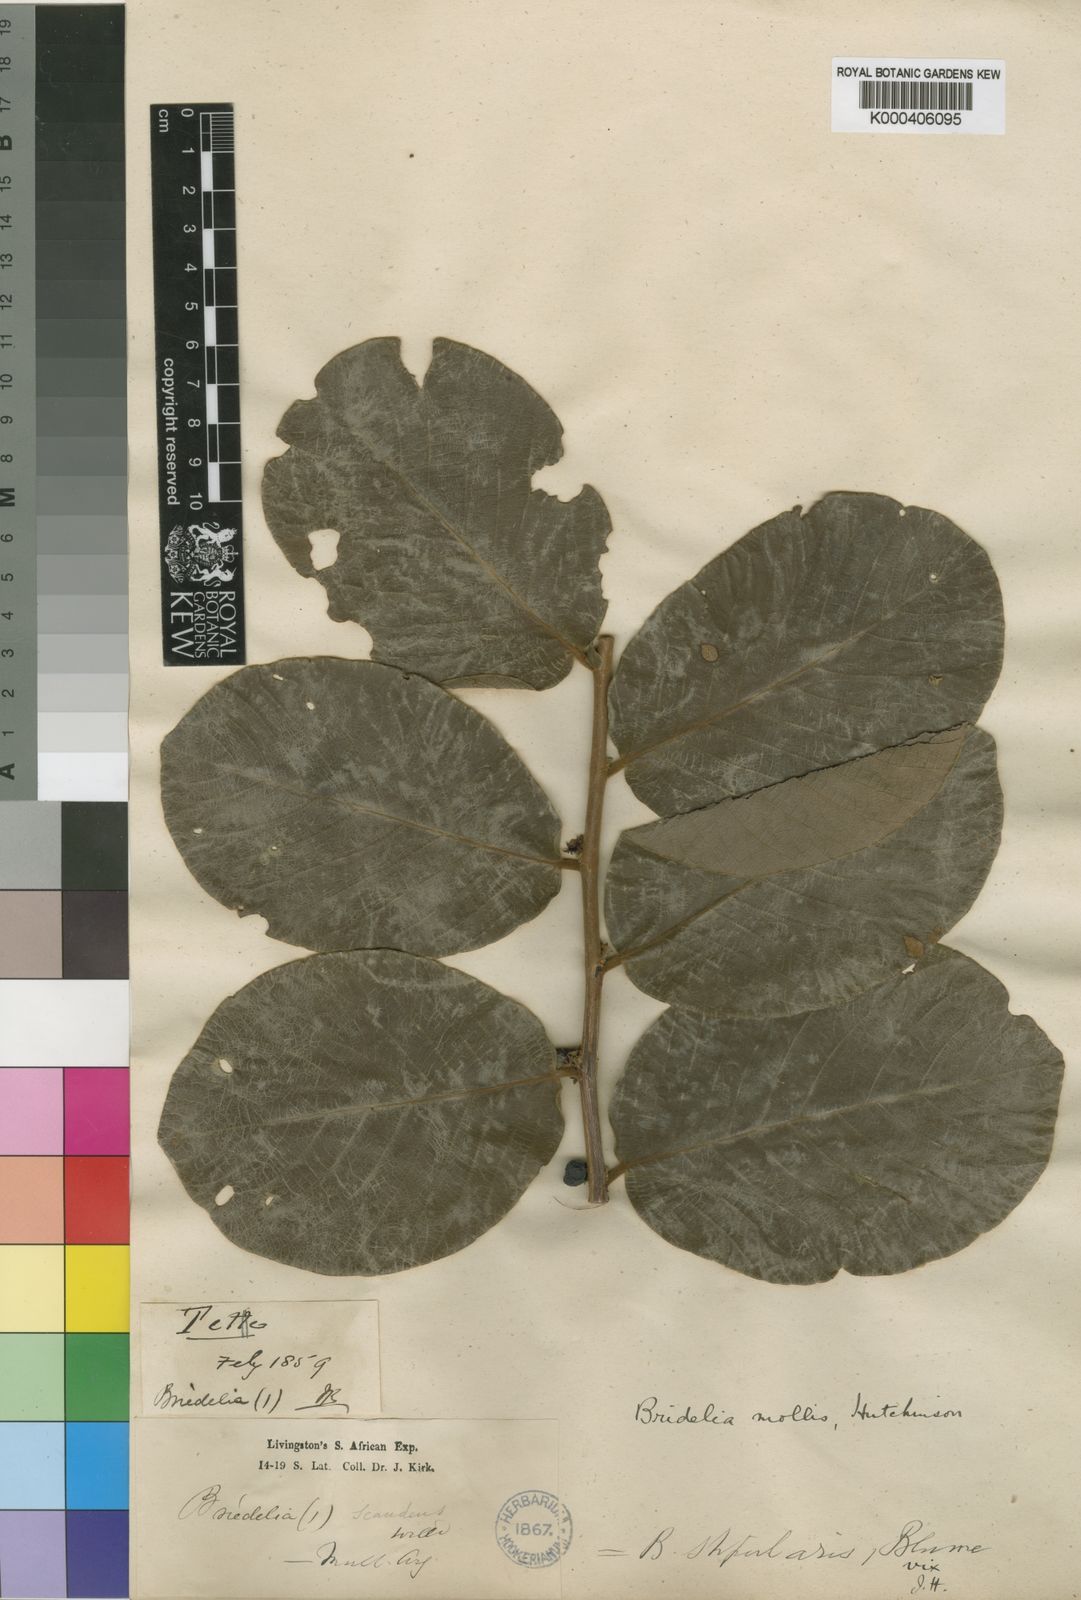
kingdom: Plantae
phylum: Tracheophyta
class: Magnoliopsida
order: Malpighiales
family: Phyllanthaceae
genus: Bridelia
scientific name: Bridelia mollis
